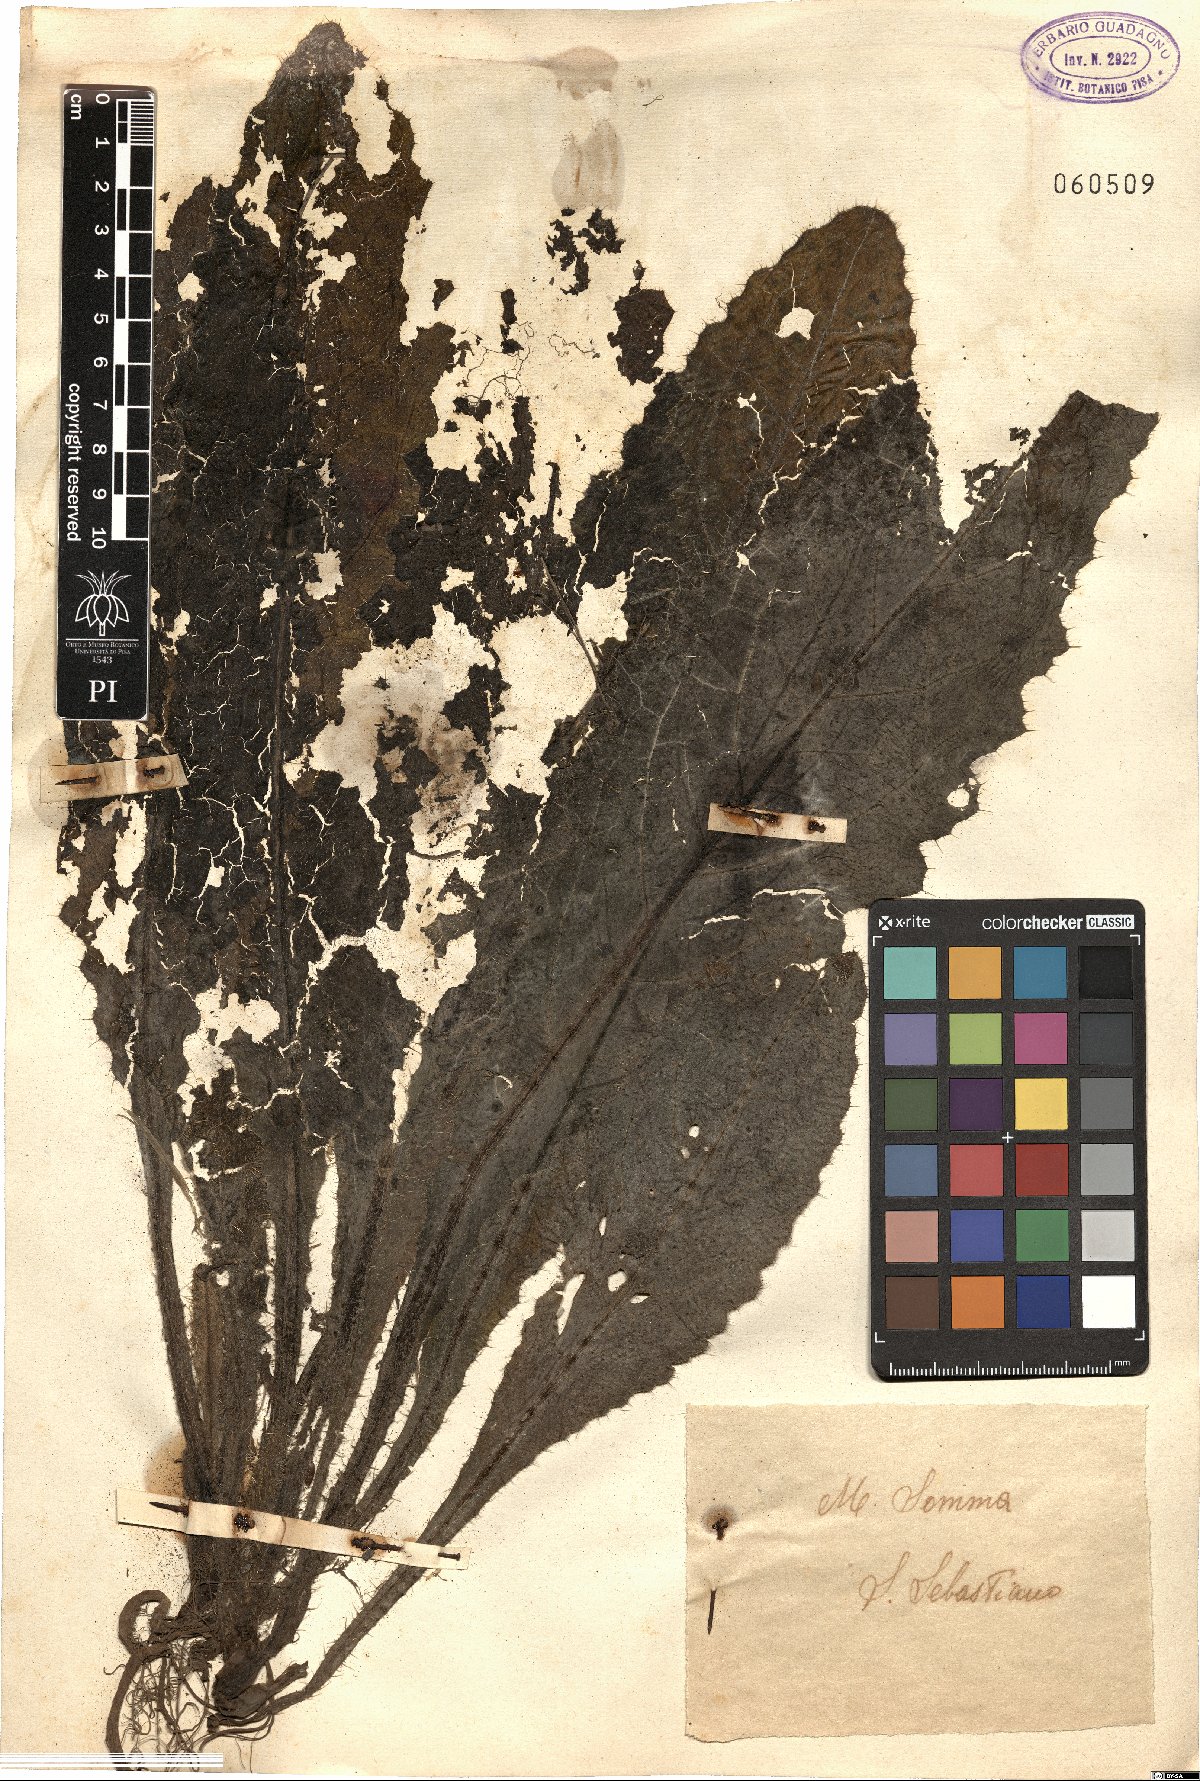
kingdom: Plantae
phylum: Tracheophyta
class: Magnoliopsida
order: Asterales
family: Asteraceae
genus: Cirsium
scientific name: Cirsium
